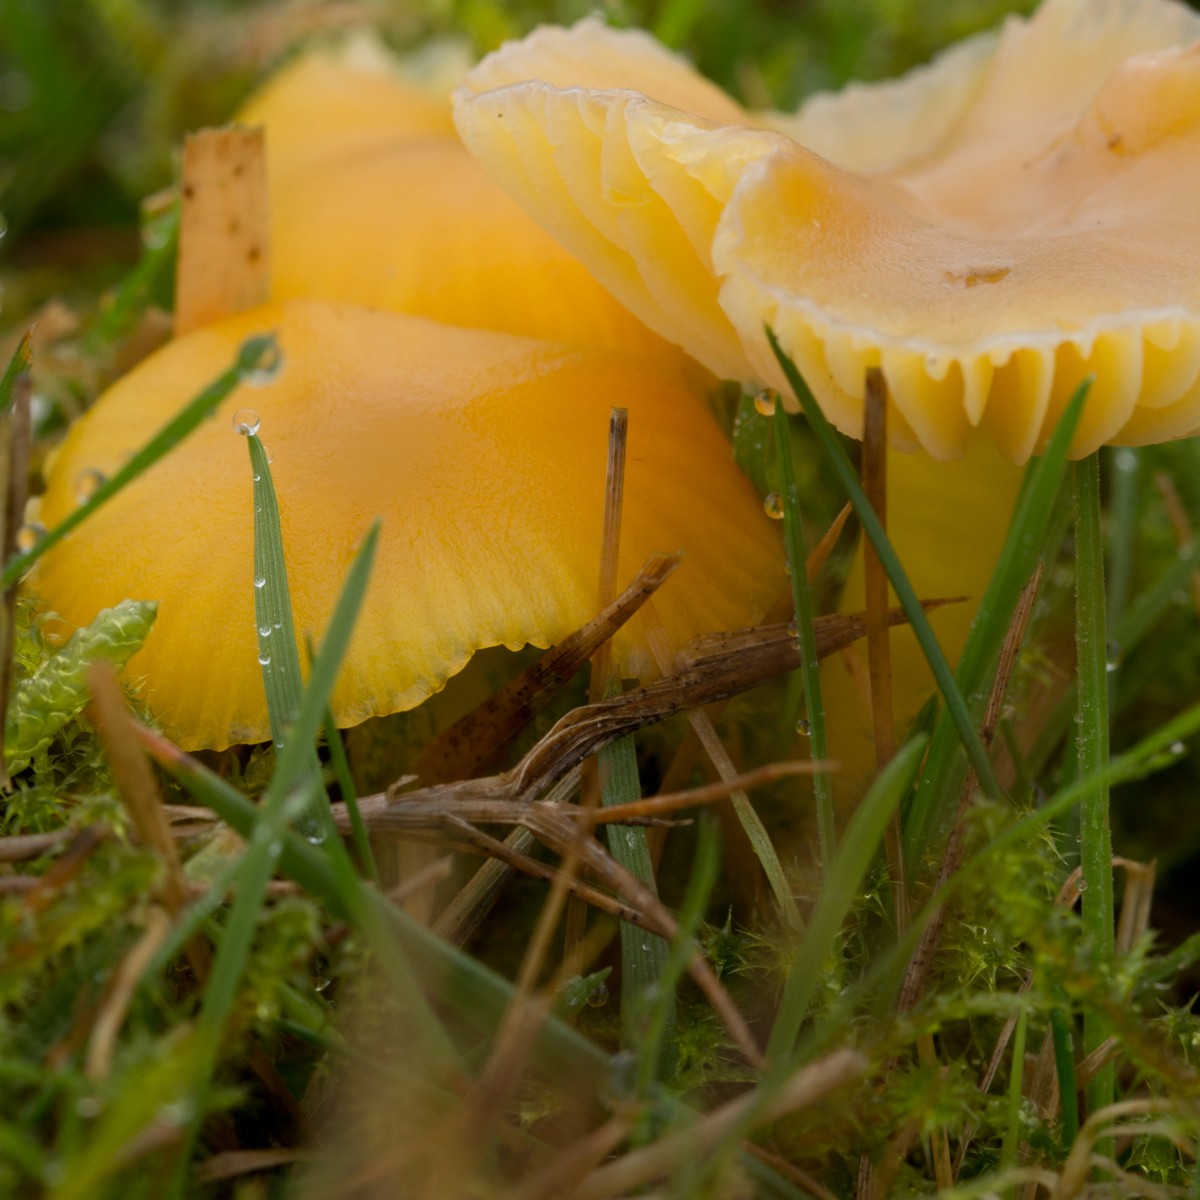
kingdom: Fungi
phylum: Basidiomycota
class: Agaricomycetes
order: Agaricales
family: Hygrophoraceae
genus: Hygrocybe
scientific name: Hygrocybe ceracea
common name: voksgul vokshat
